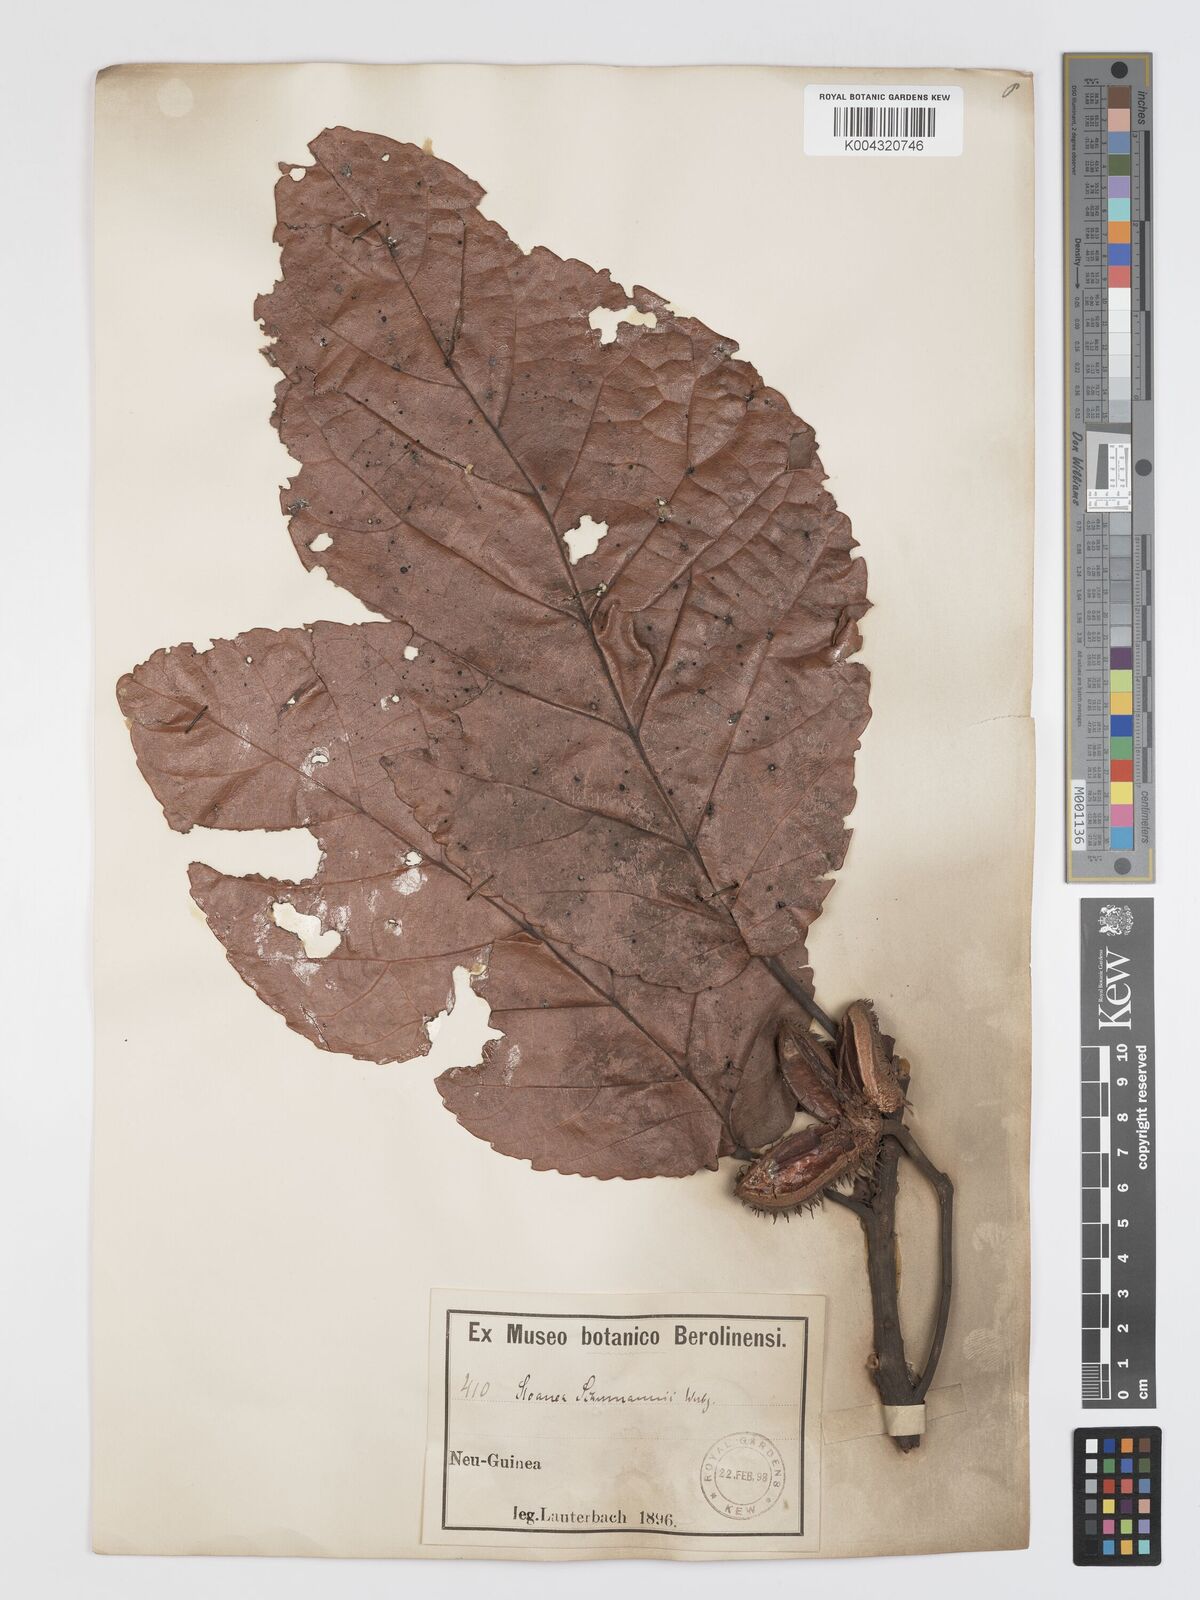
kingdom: Plantae
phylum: Tracheophyta
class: Magnoliopsida
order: Oxalidales
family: Elaeocarpaceae
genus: Sloanea
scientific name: Sloanea schumannii
